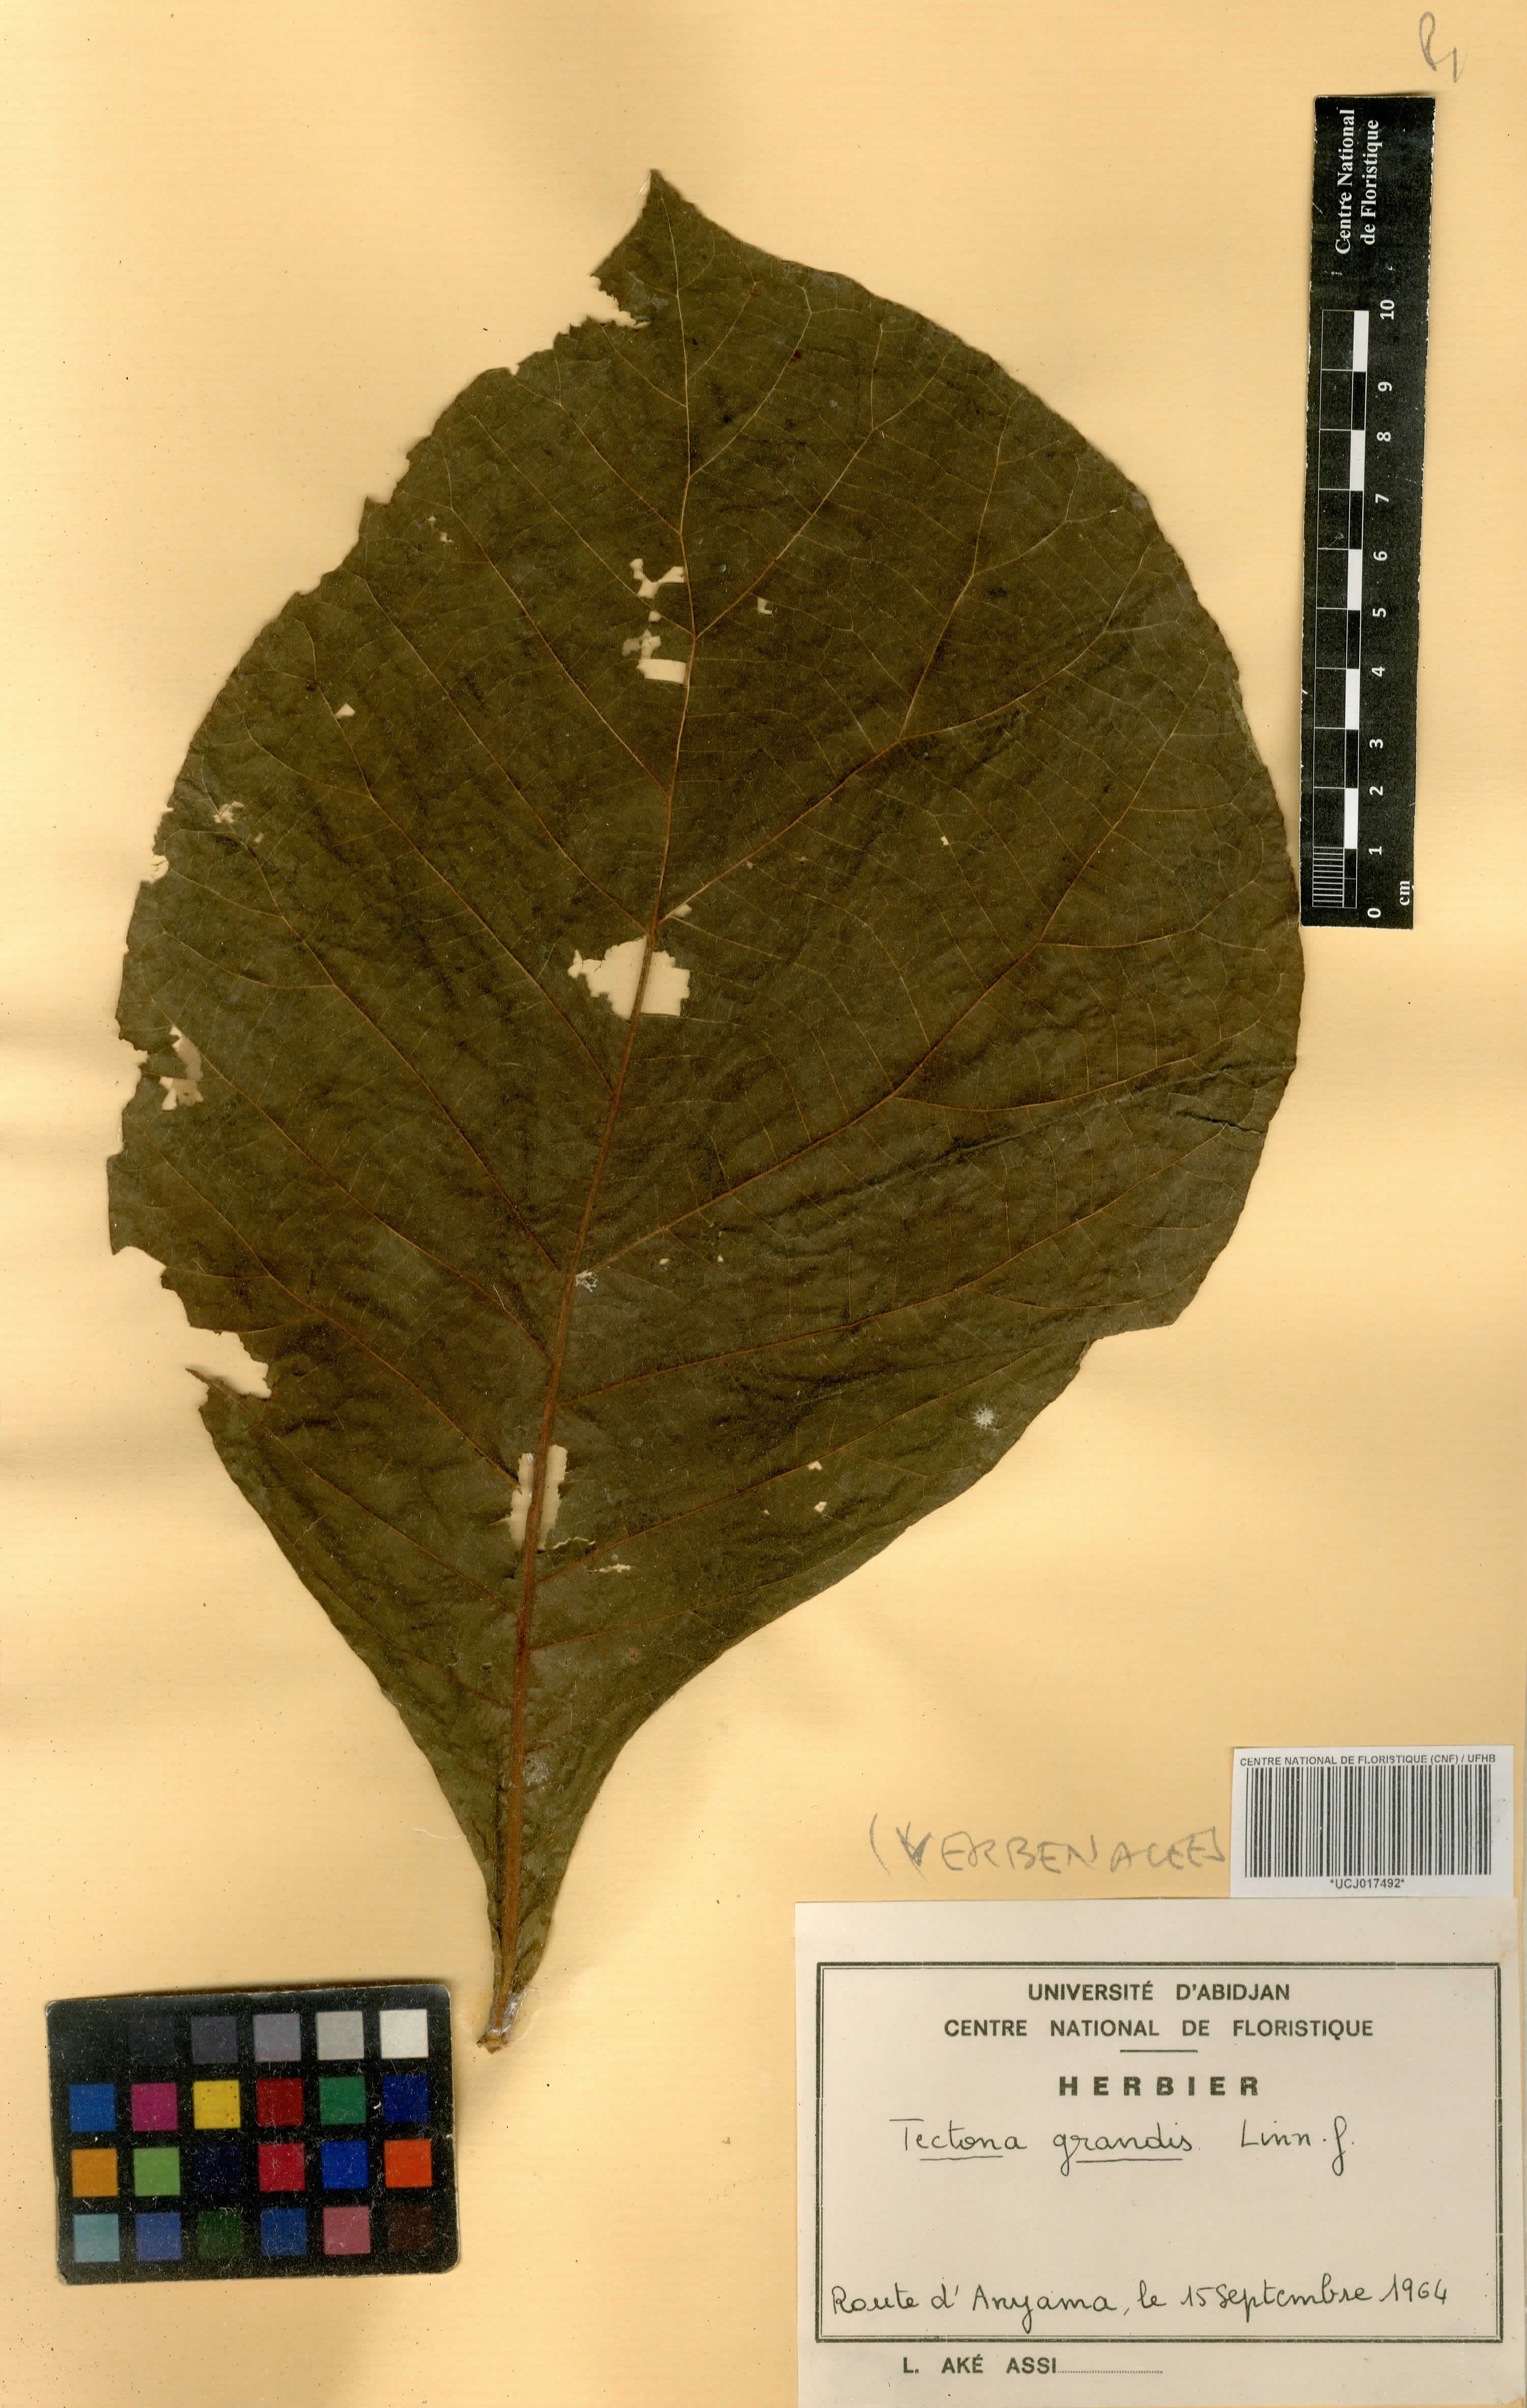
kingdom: Plantae
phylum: Tracheophyta
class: Magnoliopsida
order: Lamiales
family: Lamiaceae
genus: Tectona
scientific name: Tectona grandis
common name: Teak
